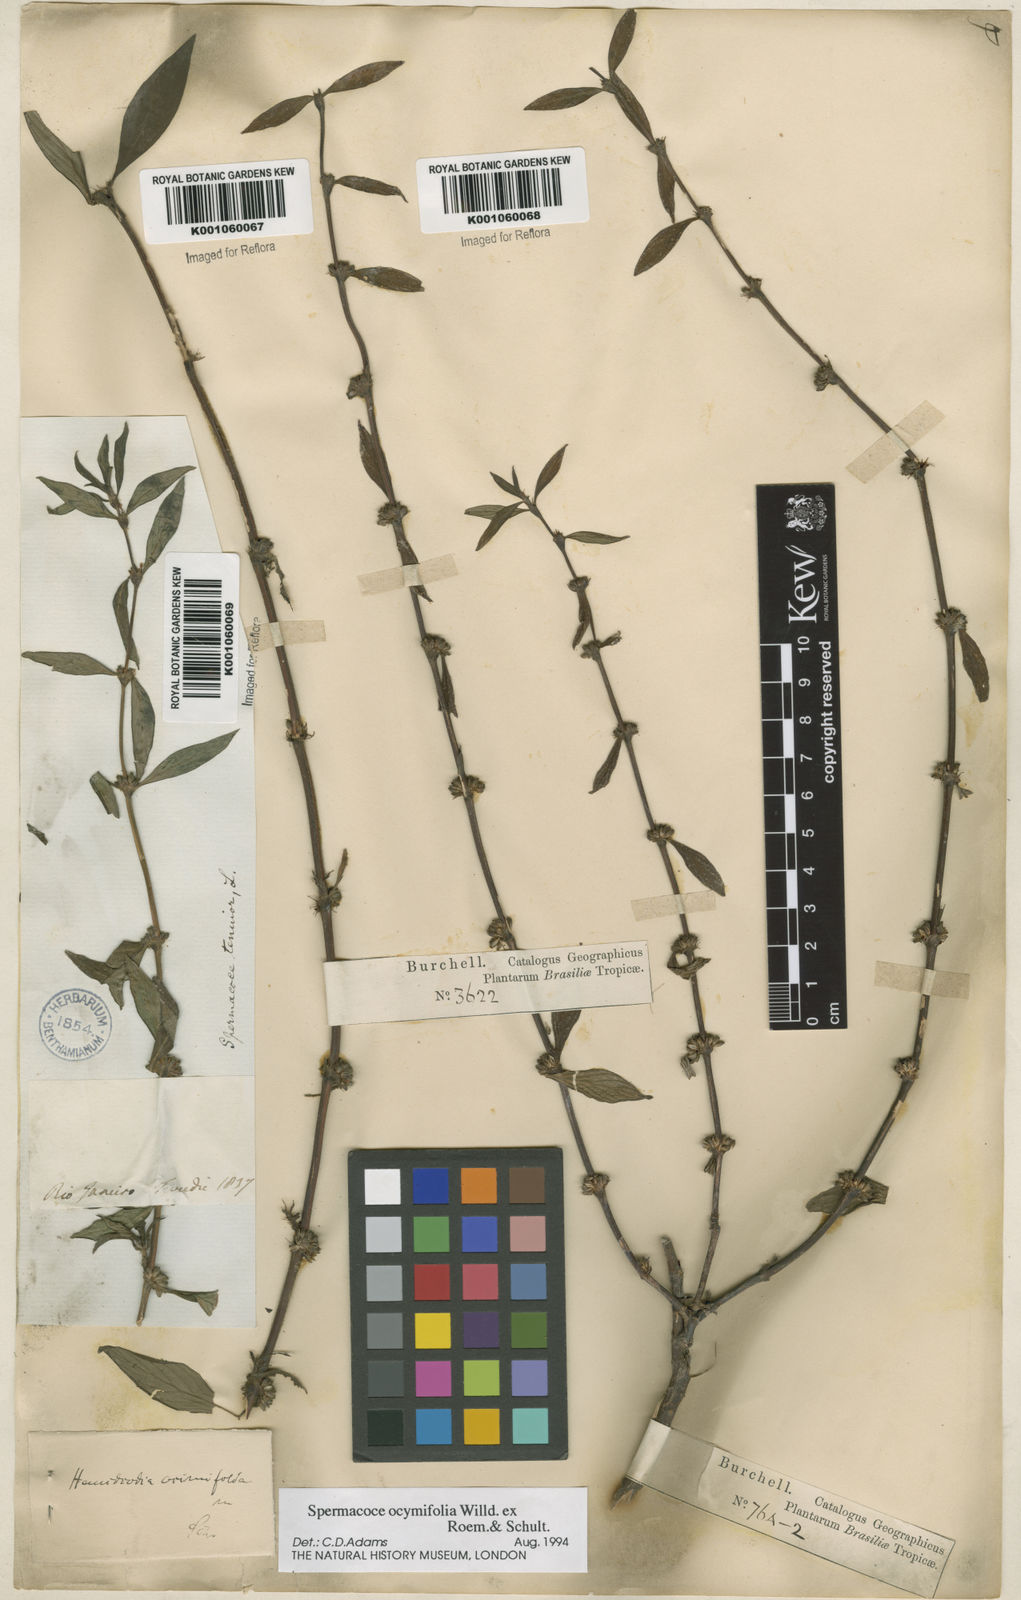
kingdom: Plantae
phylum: Tracheophyta
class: Magnoliopsida
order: Gentianales
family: Rubiaceae
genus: Spermacoce
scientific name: Spermacoce
